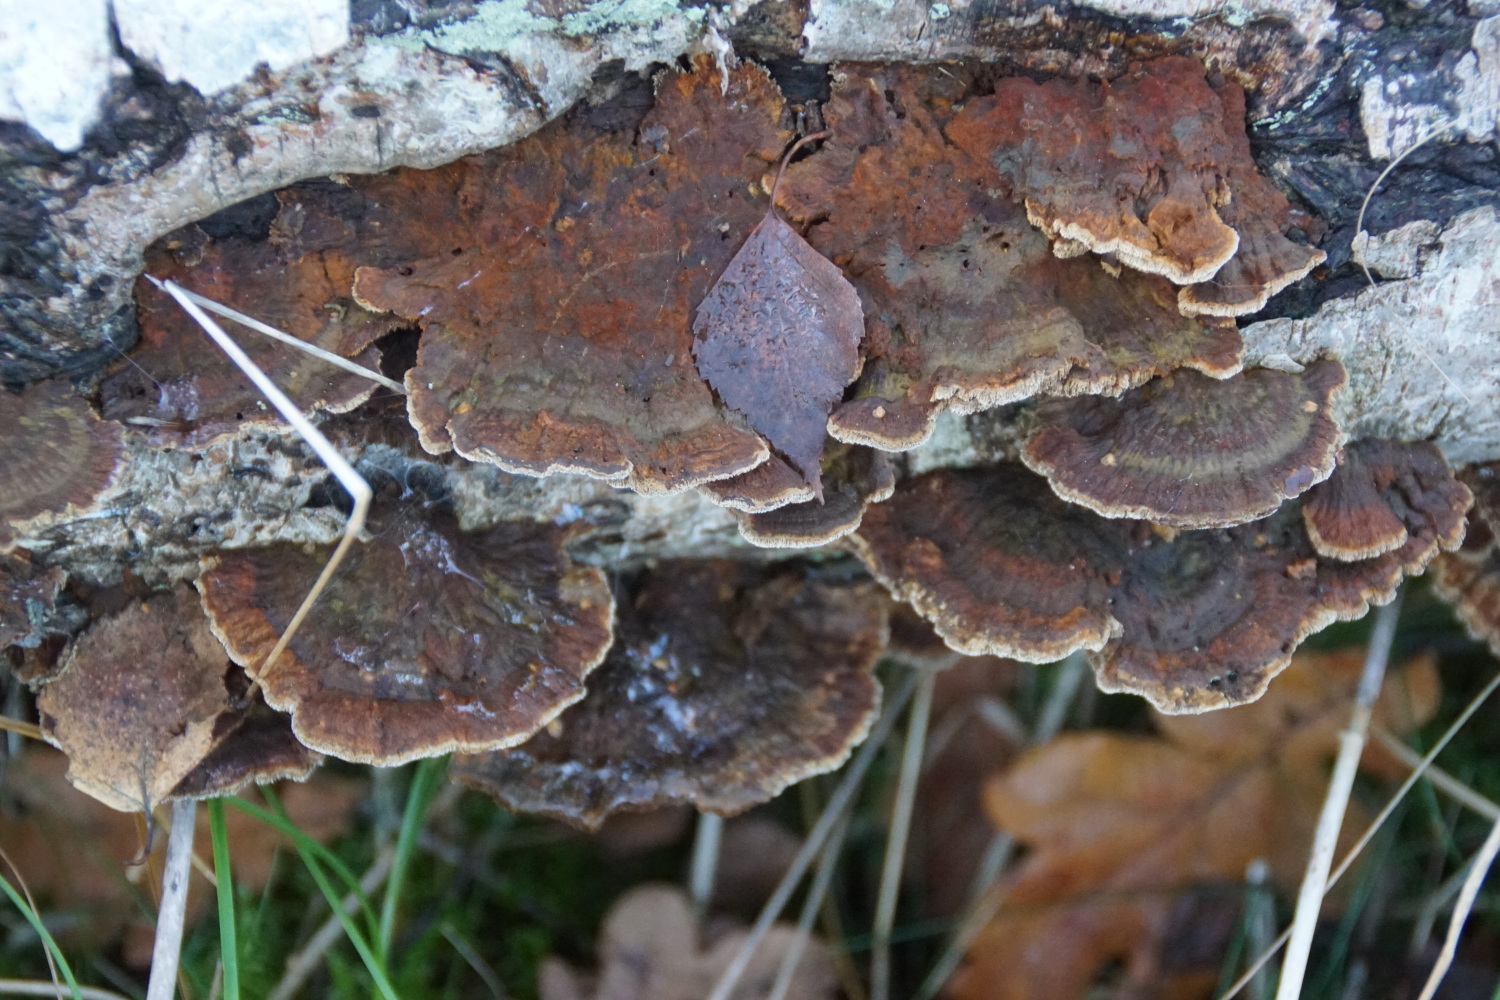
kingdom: Fungi
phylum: Basidiomycota
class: Agaricomycetes
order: Hymenochaetales
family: Hymenochaetaceae
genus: Xanthoporia
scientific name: Xanthoporia radiata
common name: elle-spejlporesvamp
